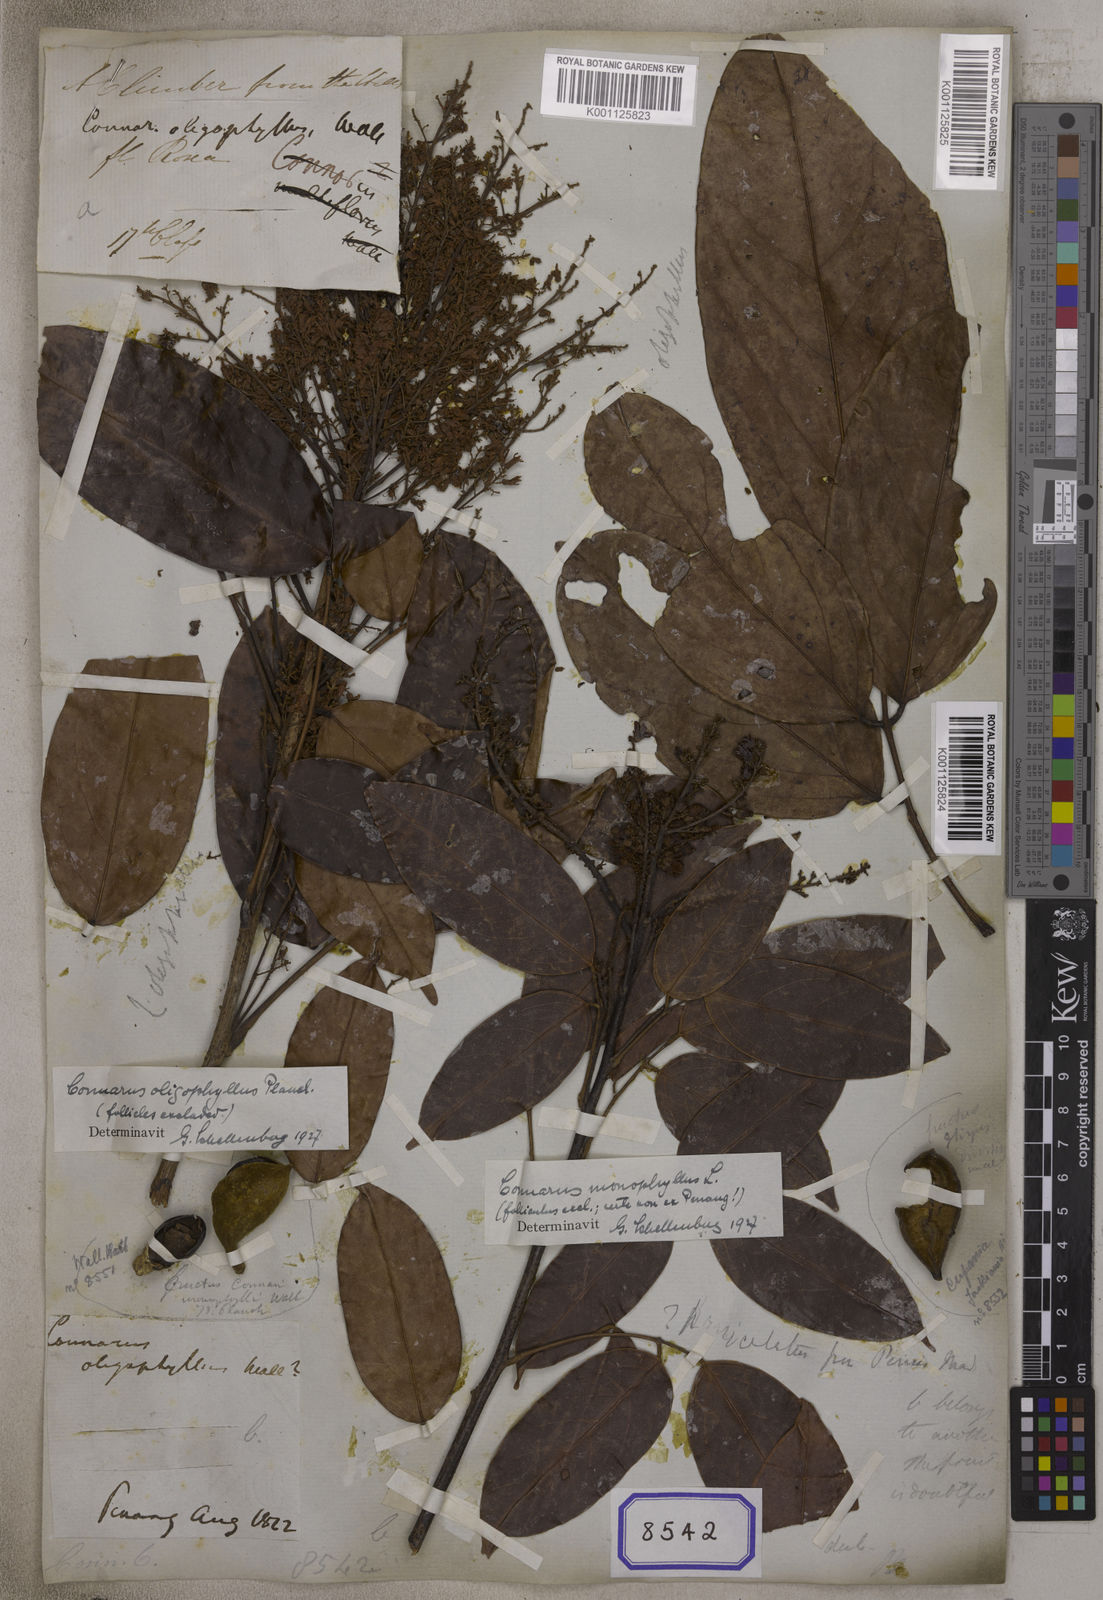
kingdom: Plantae
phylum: Tracheophyta
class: Magnoliopsida
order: Oxalidales
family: Connaraceae
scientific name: Connaraceae
